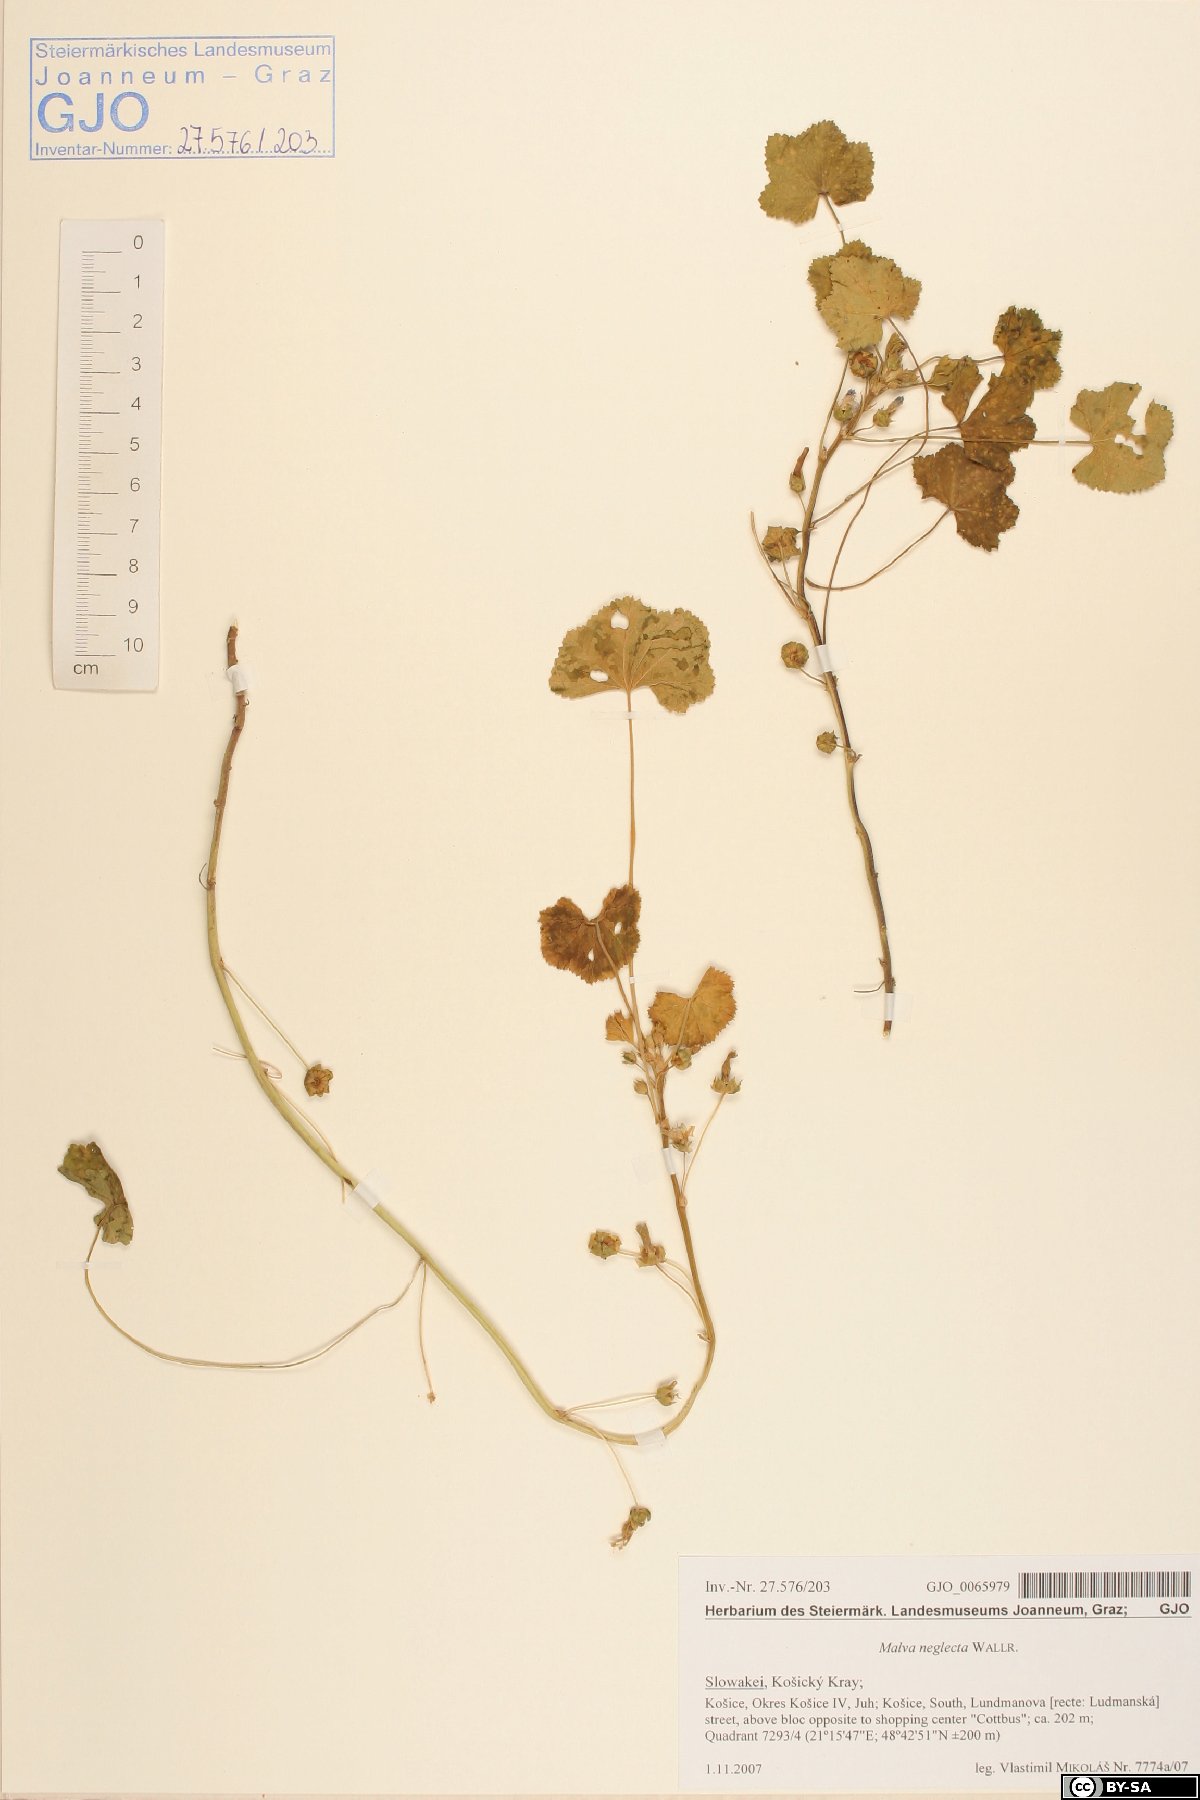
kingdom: Plantae
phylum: Tracheophyta
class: Magnoliopsida
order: Malvales
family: Malvaceae
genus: Malva
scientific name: Malva neglecta
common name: Common mallow
